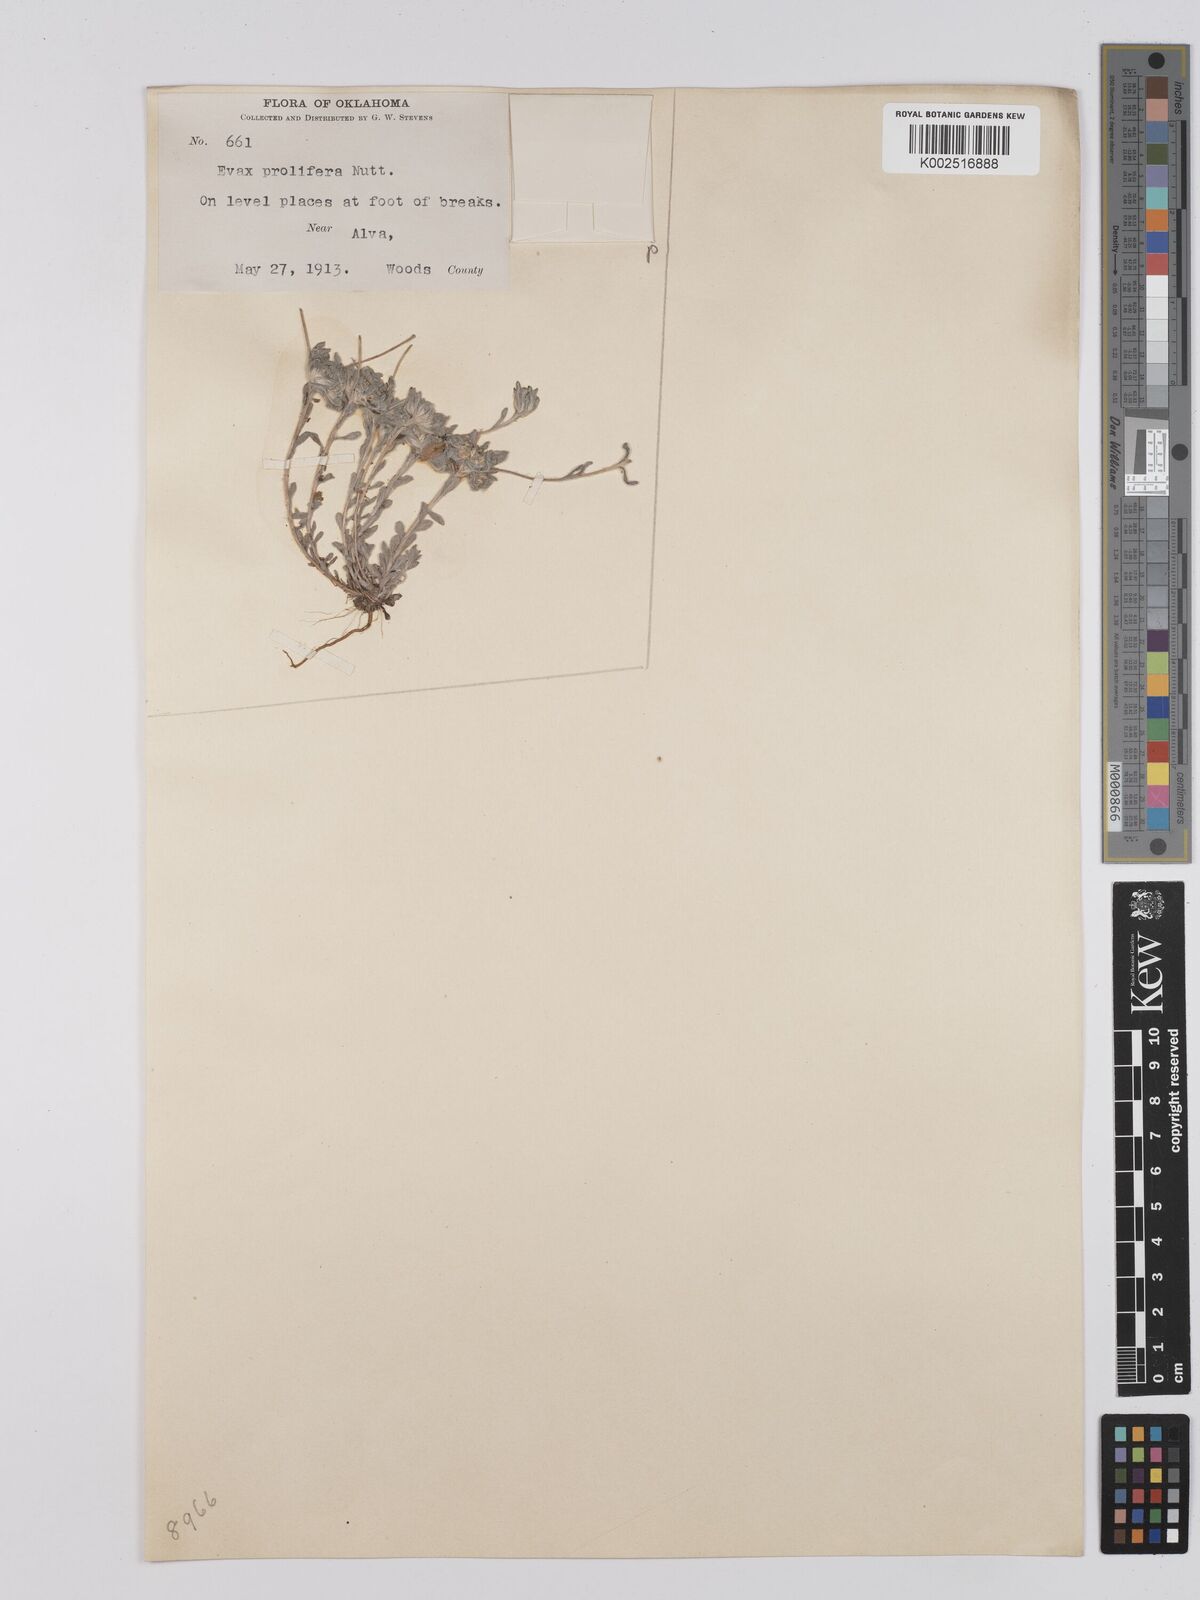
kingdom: Plantae
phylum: Tracheophyta
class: Magnoliopsida
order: Asterales
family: Asteraceae
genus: Diaperia
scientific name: Diaperia prolifera
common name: Big-head rabbit-tobacco
